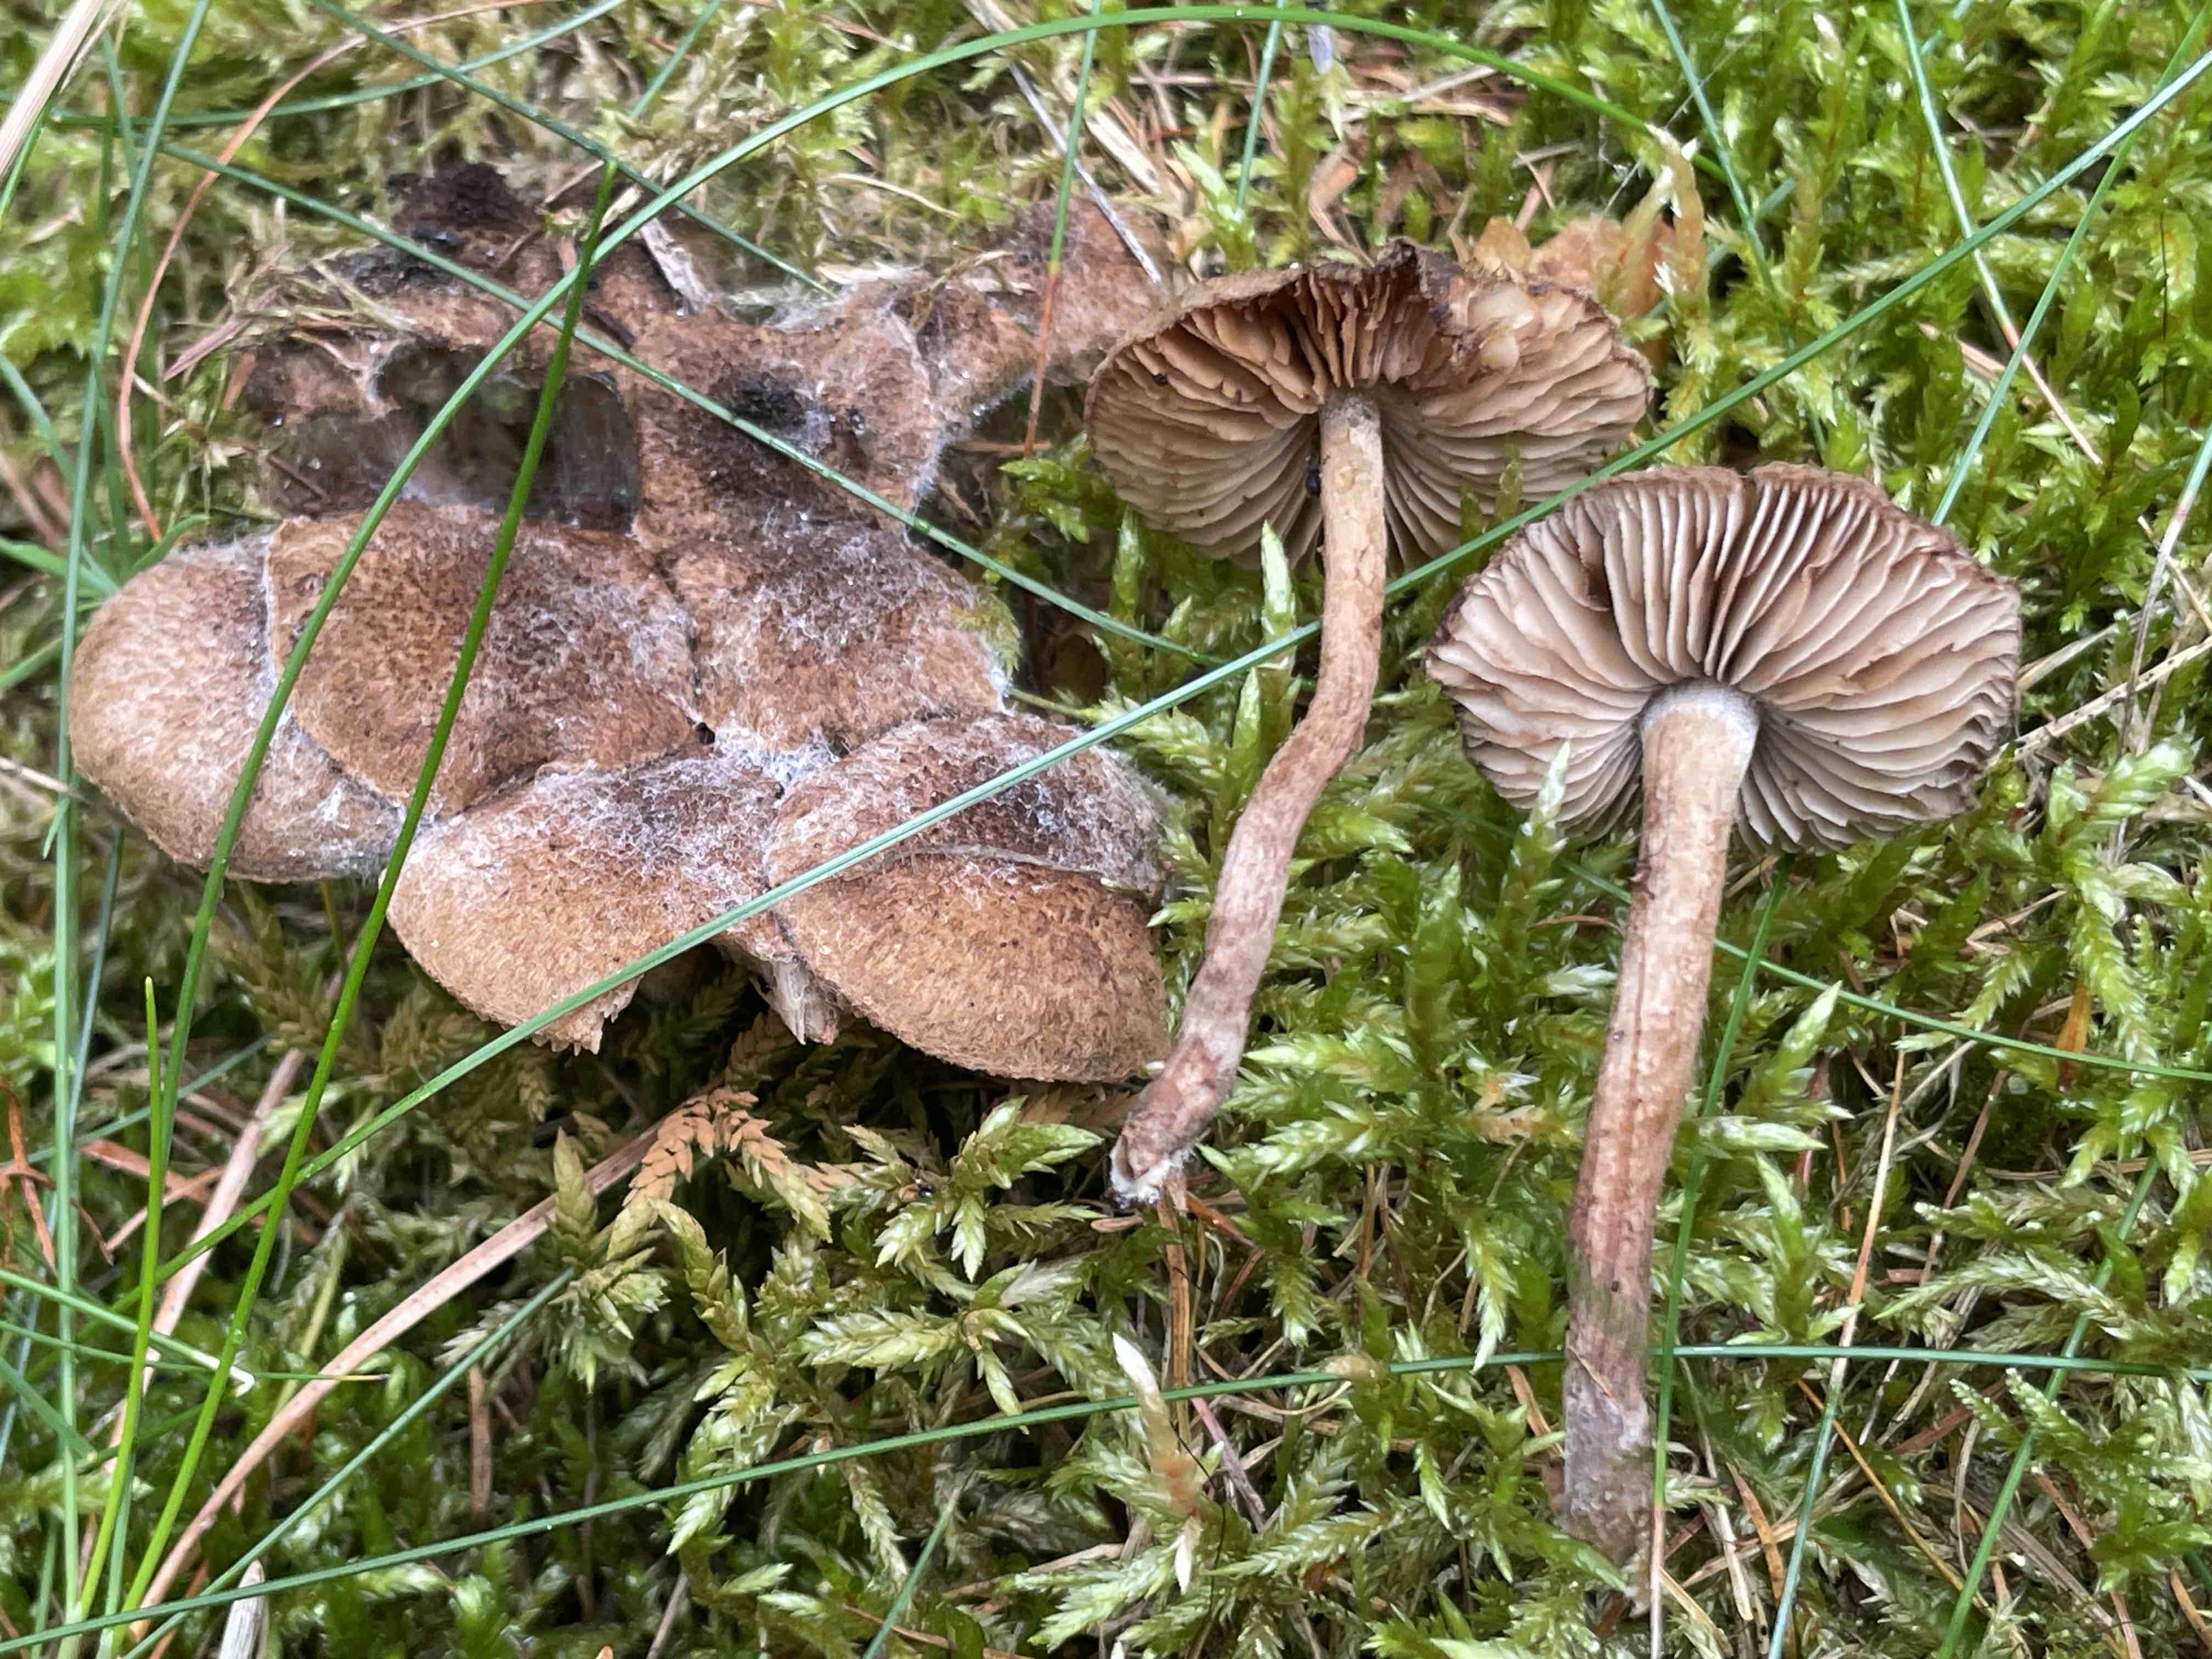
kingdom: Fungi
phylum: Basidiomycota
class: Agaricomycetes
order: Agaricales
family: Inocybaceae
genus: Inocybe
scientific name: Inocybe lanuginosa
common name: uldskællet trævlhat
